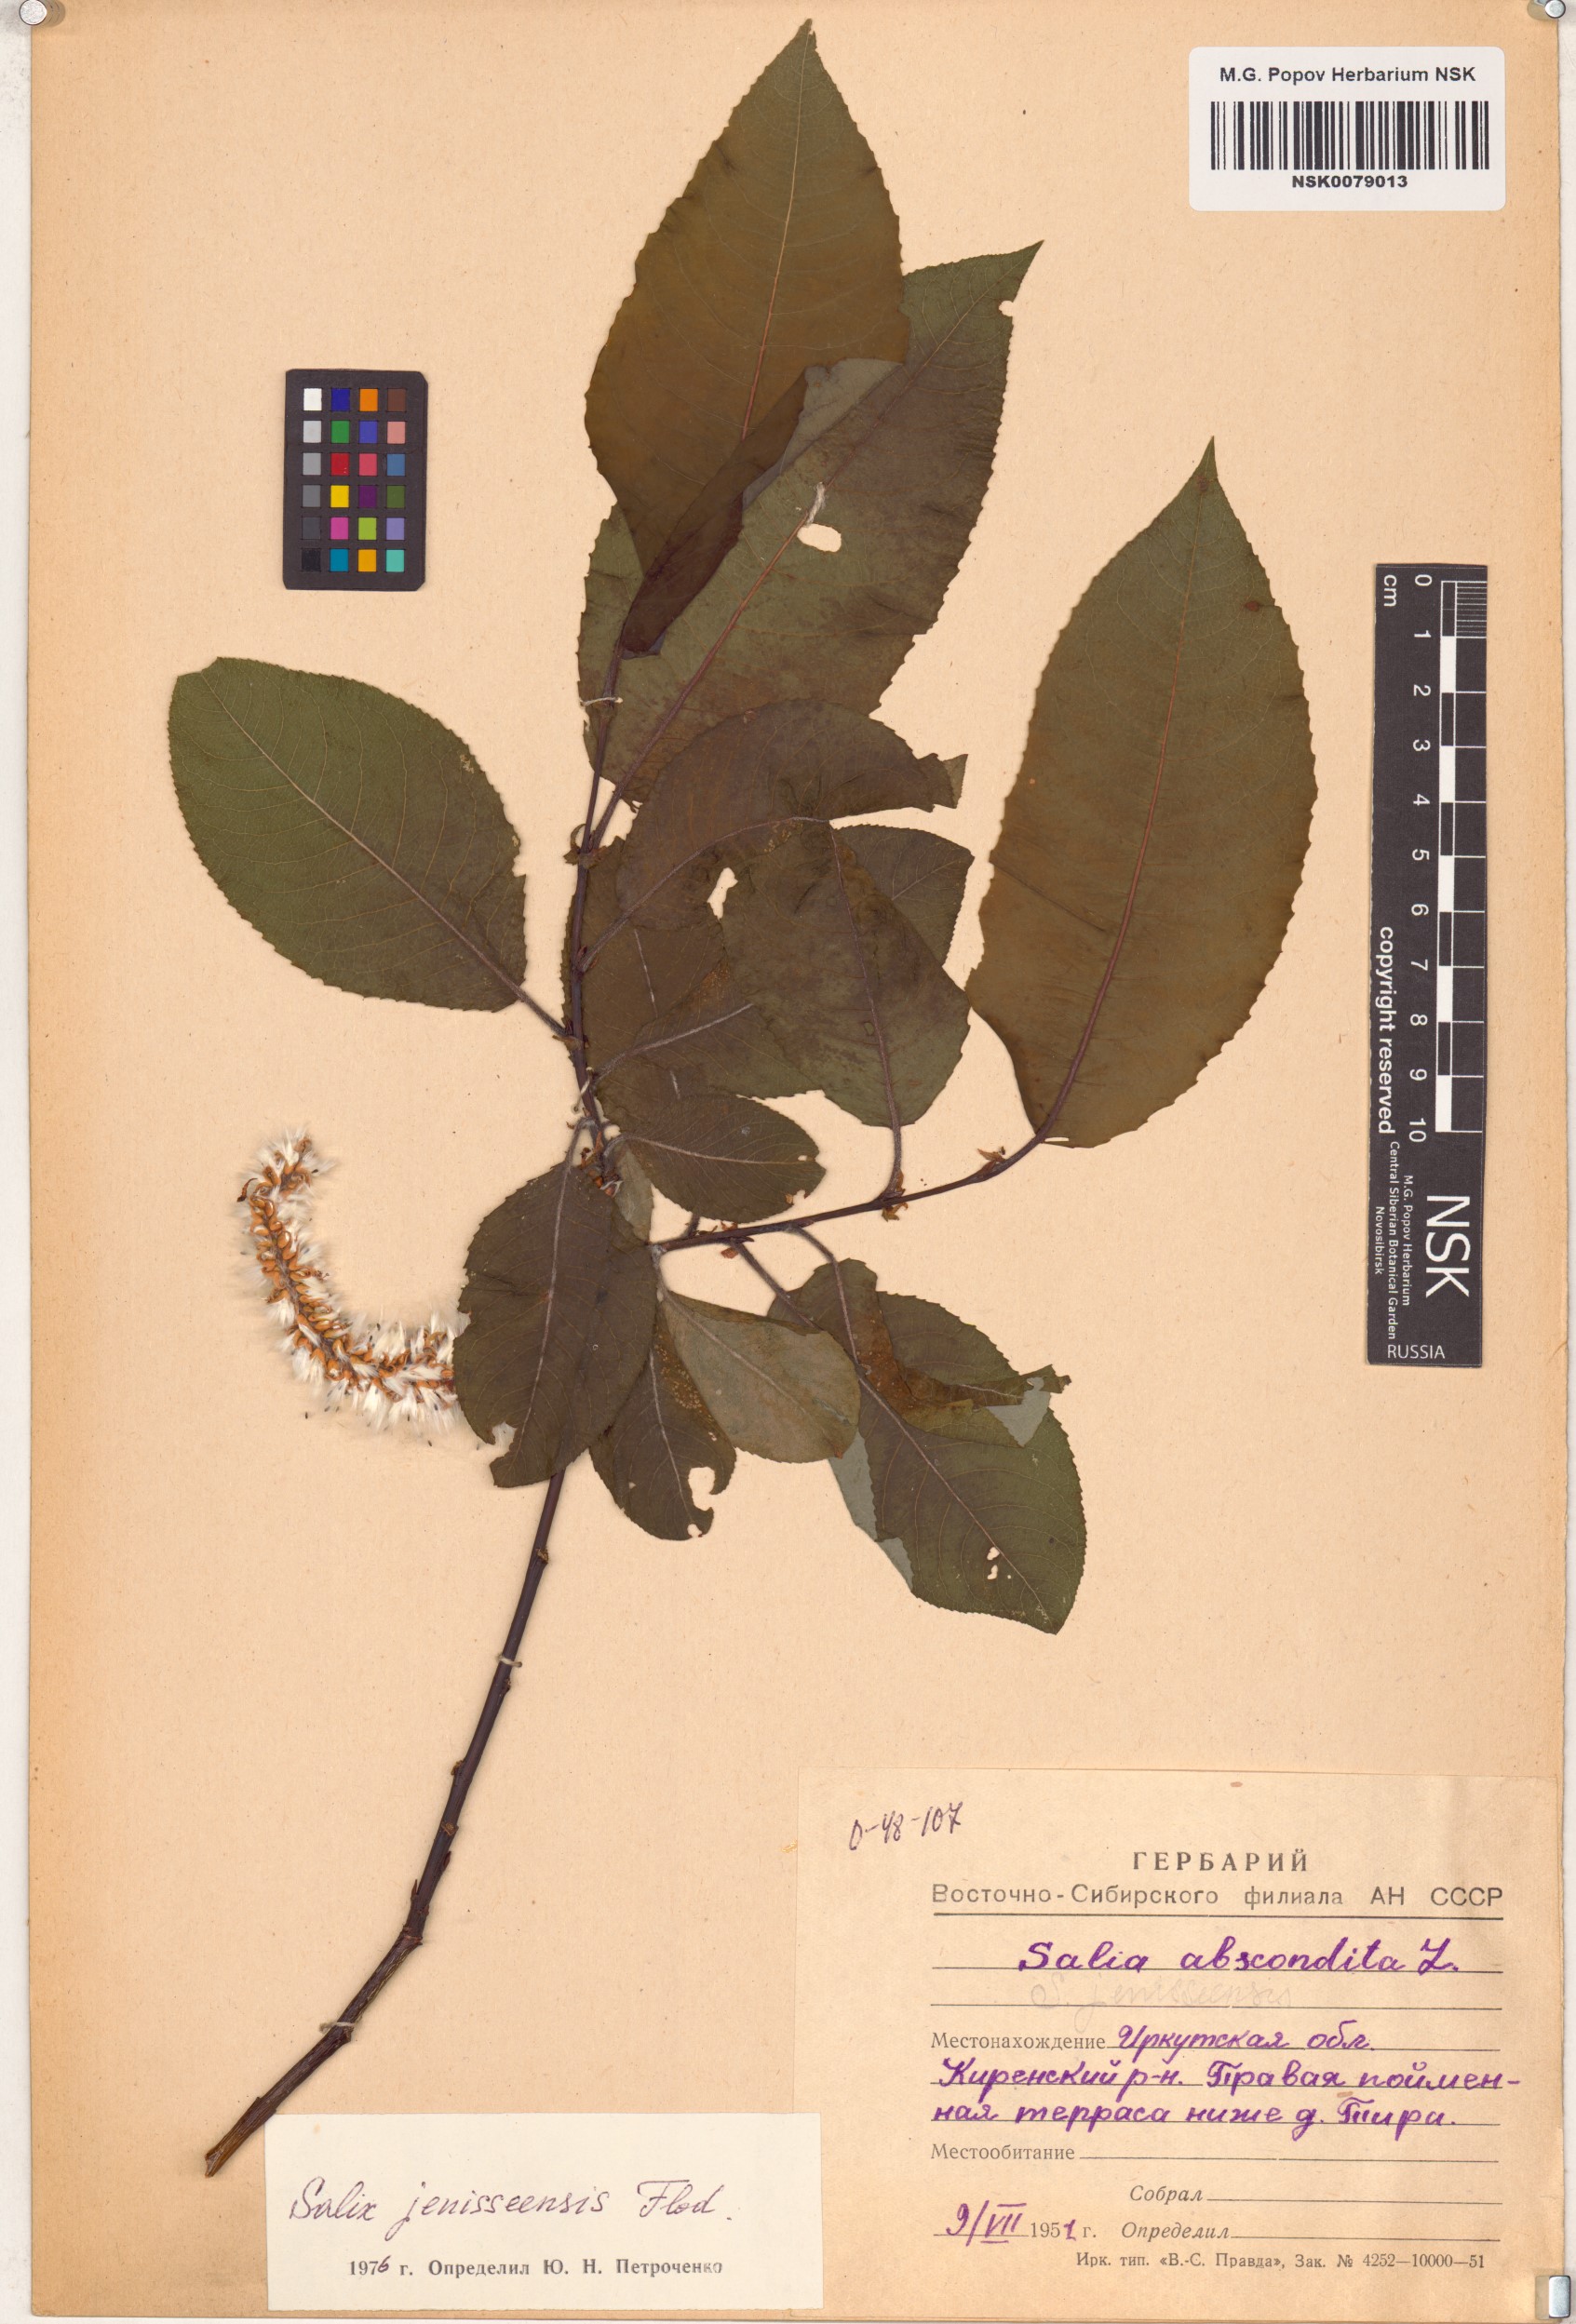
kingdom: Plantae
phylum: Tracheophyta
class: Magnoliopsida
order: Malpighiales
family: Salicaceae
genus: Salix
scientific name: Salix jenisseensis
